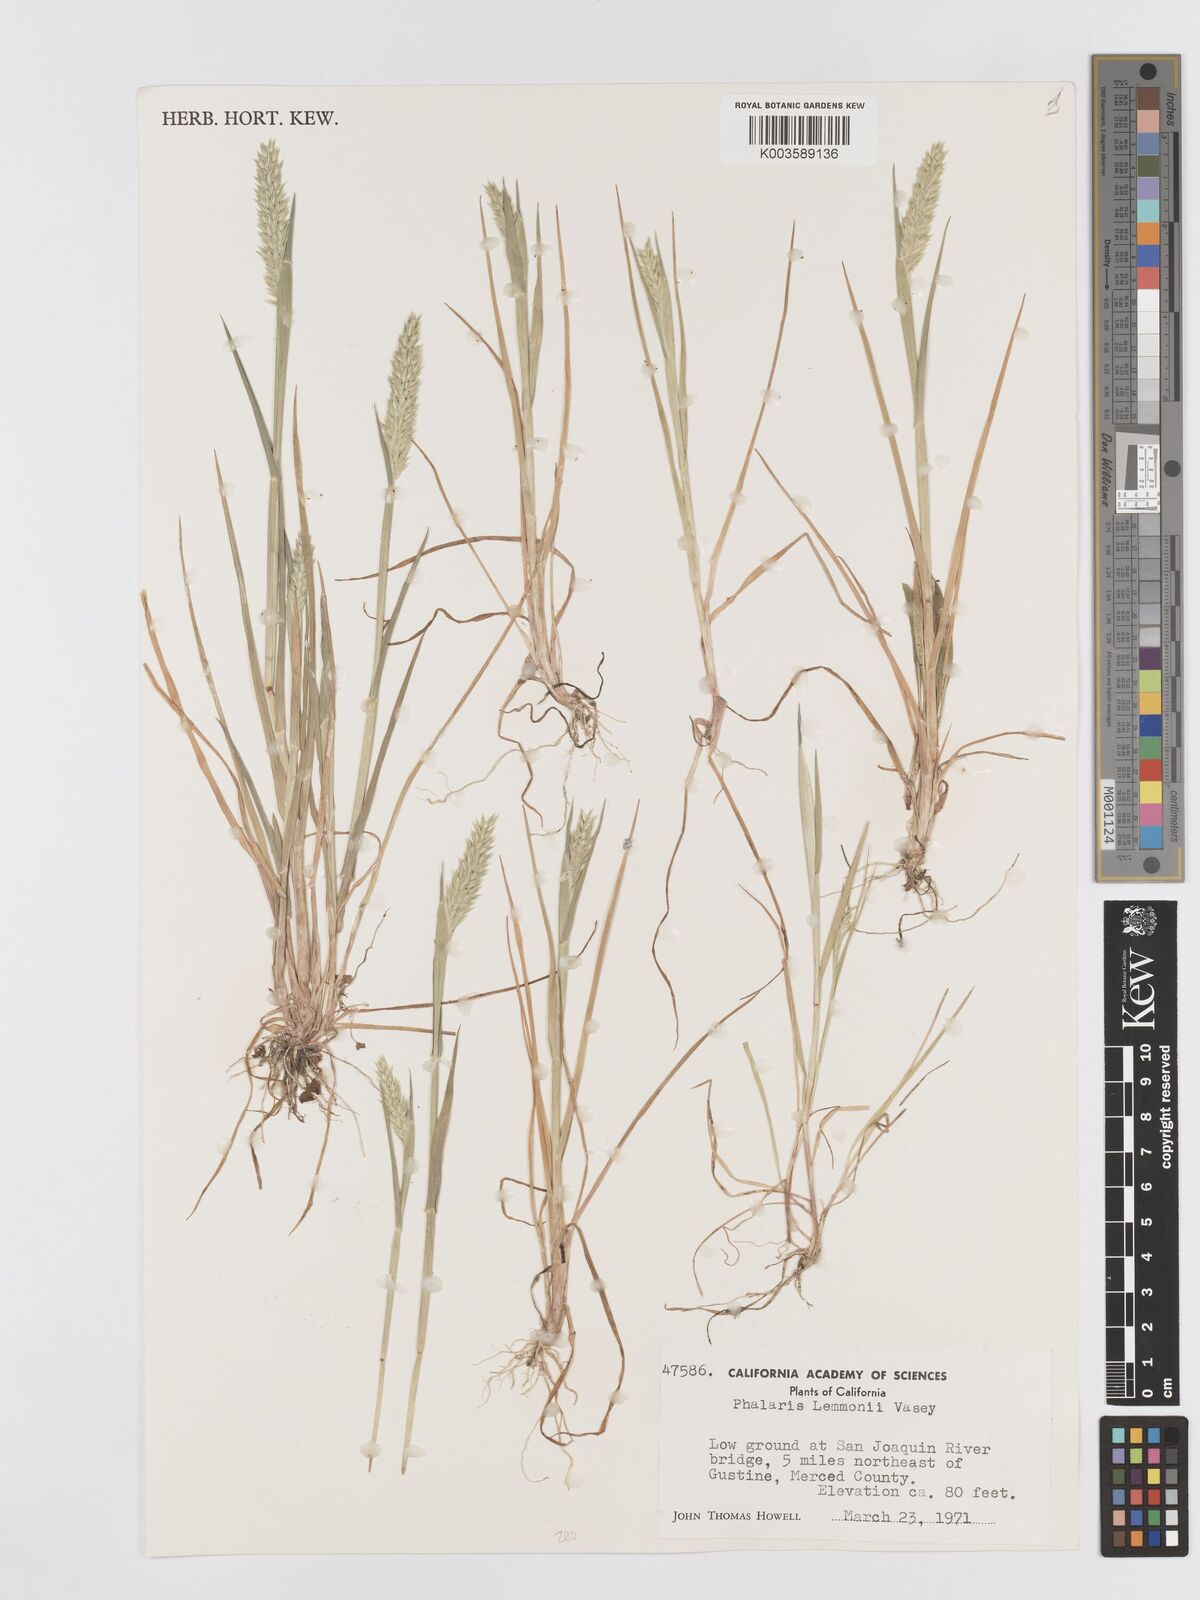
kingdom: Plantae
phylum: Tracheophyta
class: Liliopsida
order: Poales
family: Poaceae
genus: Phalaris
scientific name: Phalaris lemmonii
